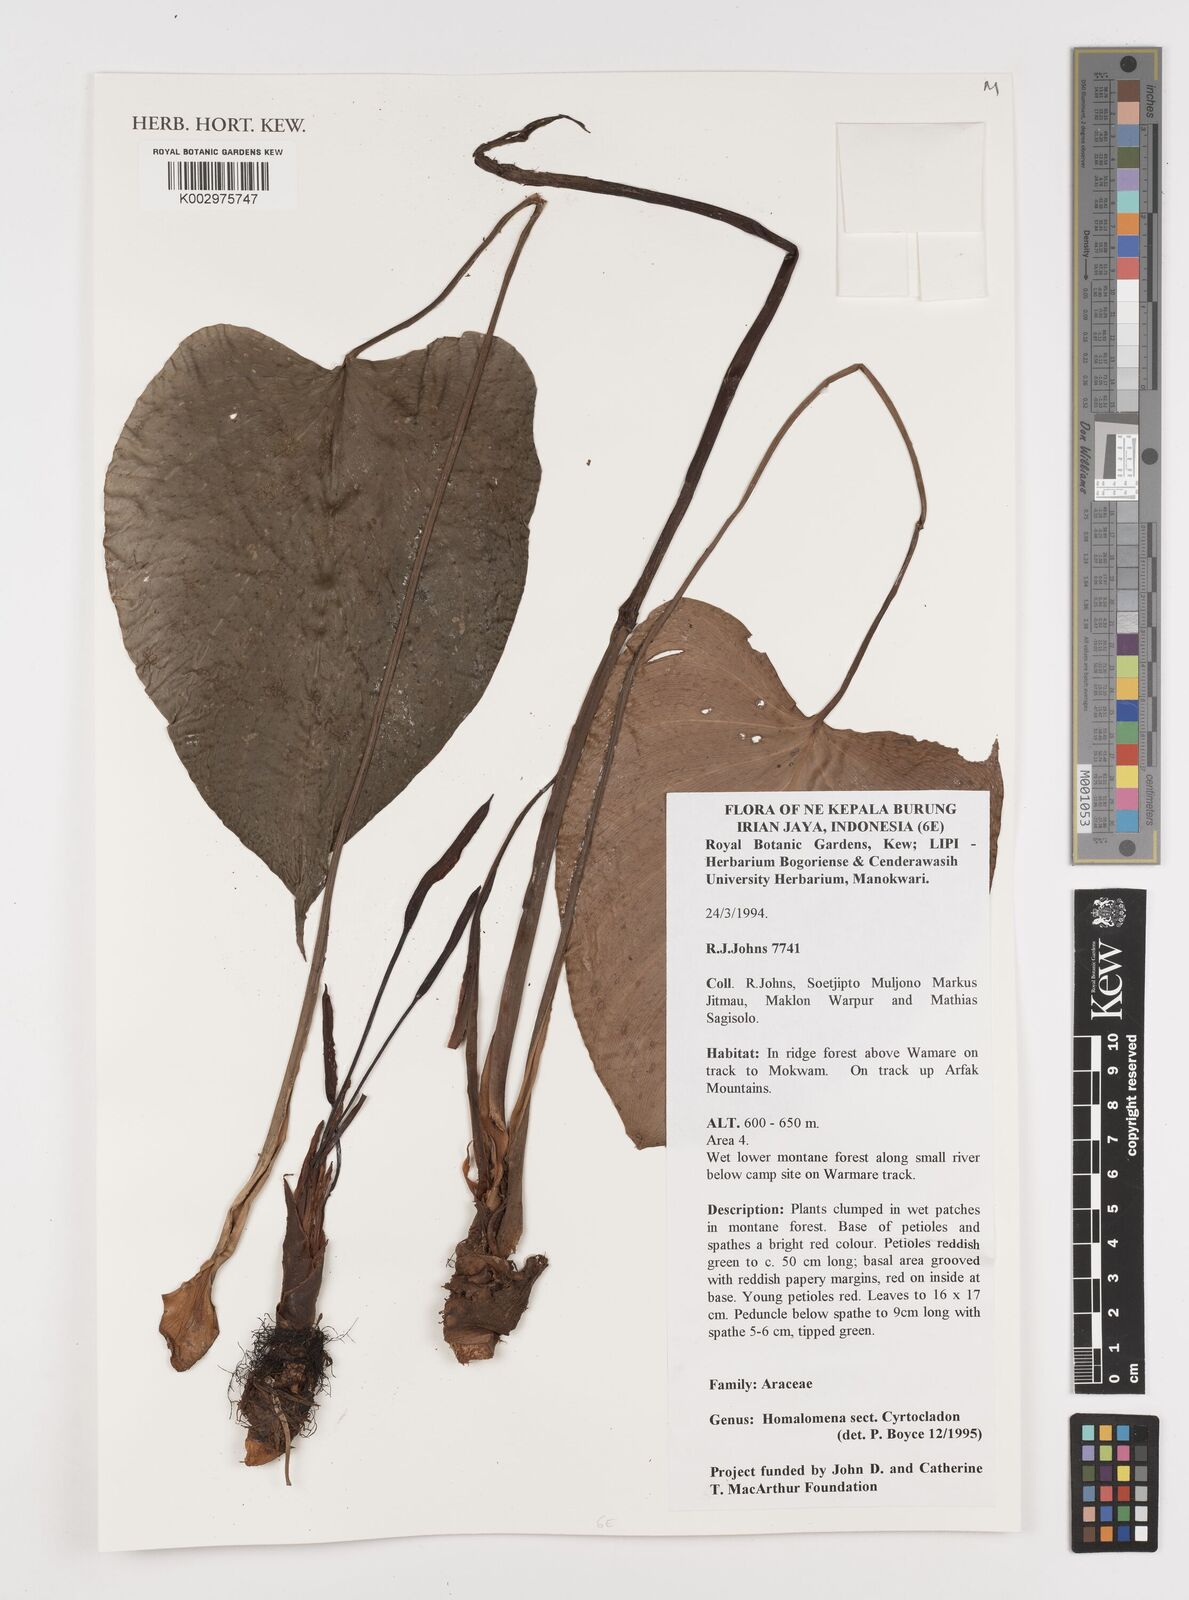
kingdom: Plantae
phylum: Tracheophyta
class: Liliopsida
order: Alismatales
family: Araceae
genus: Homalomena
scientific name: Homalomena
